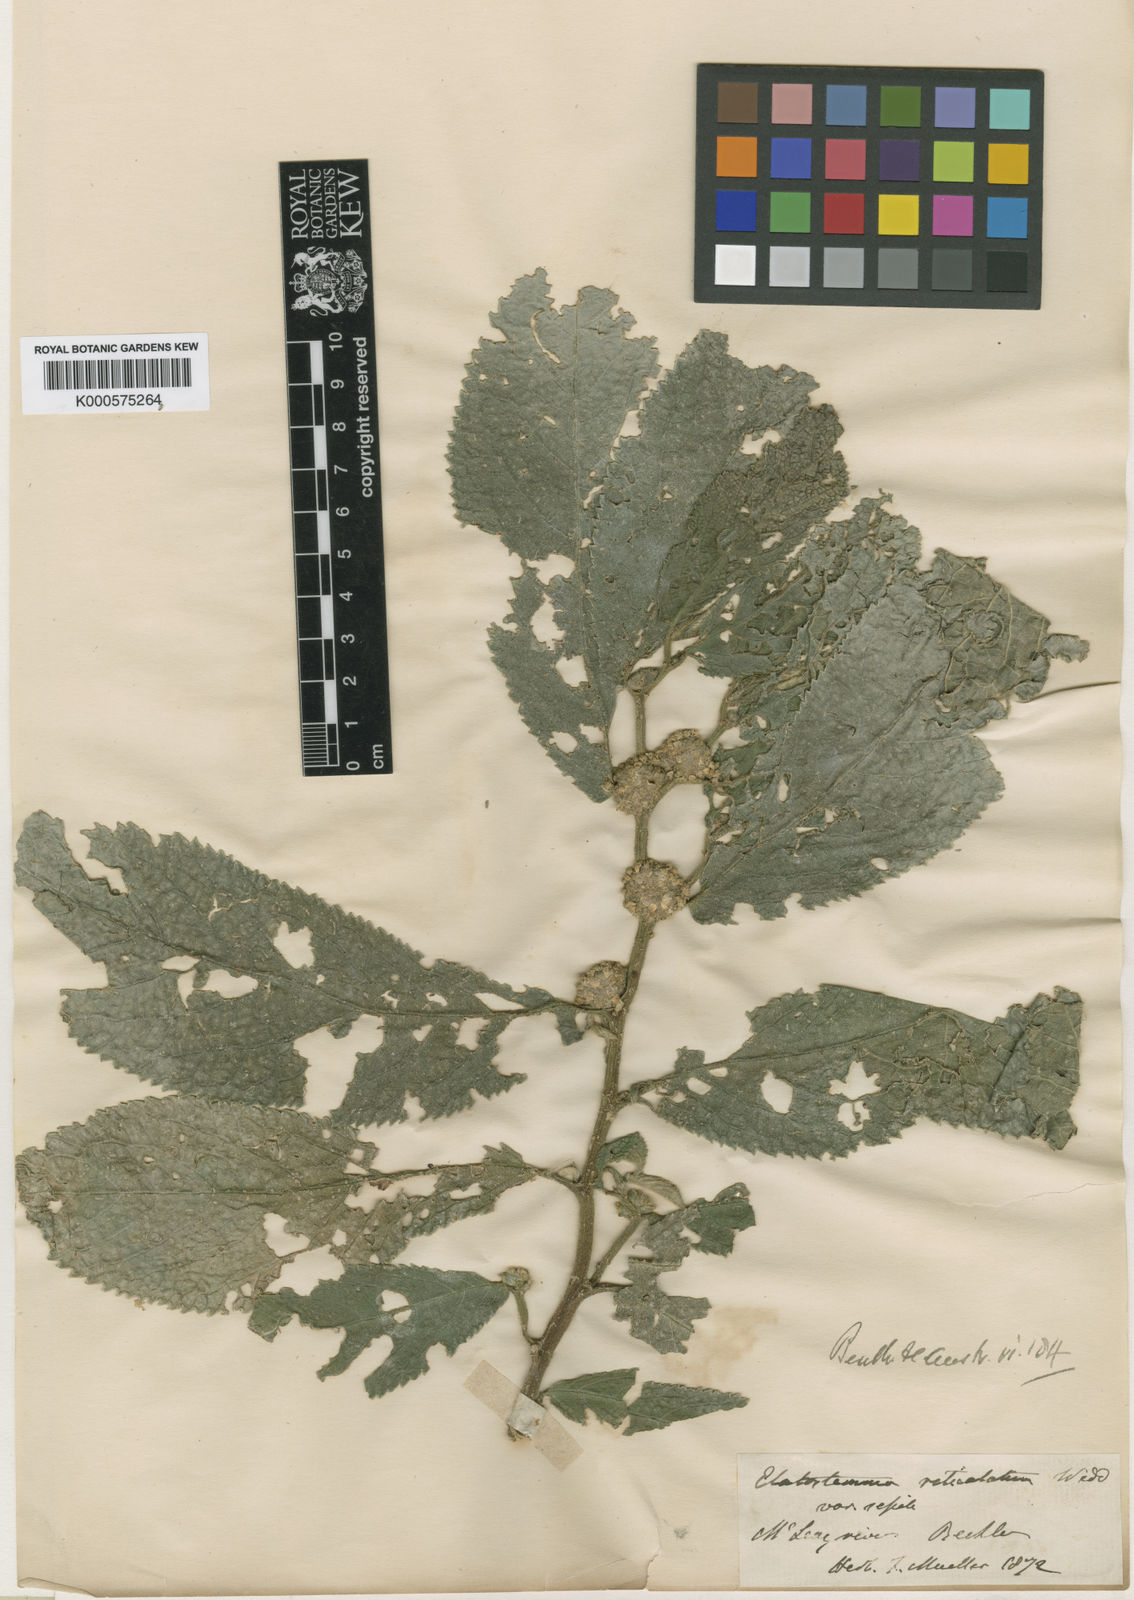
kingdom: Plantae
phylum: Tracheophyta
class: Magnoliopsida
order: Rosales
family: Urticaceae
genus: Elatostema
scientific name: Elatostema reticulatum
